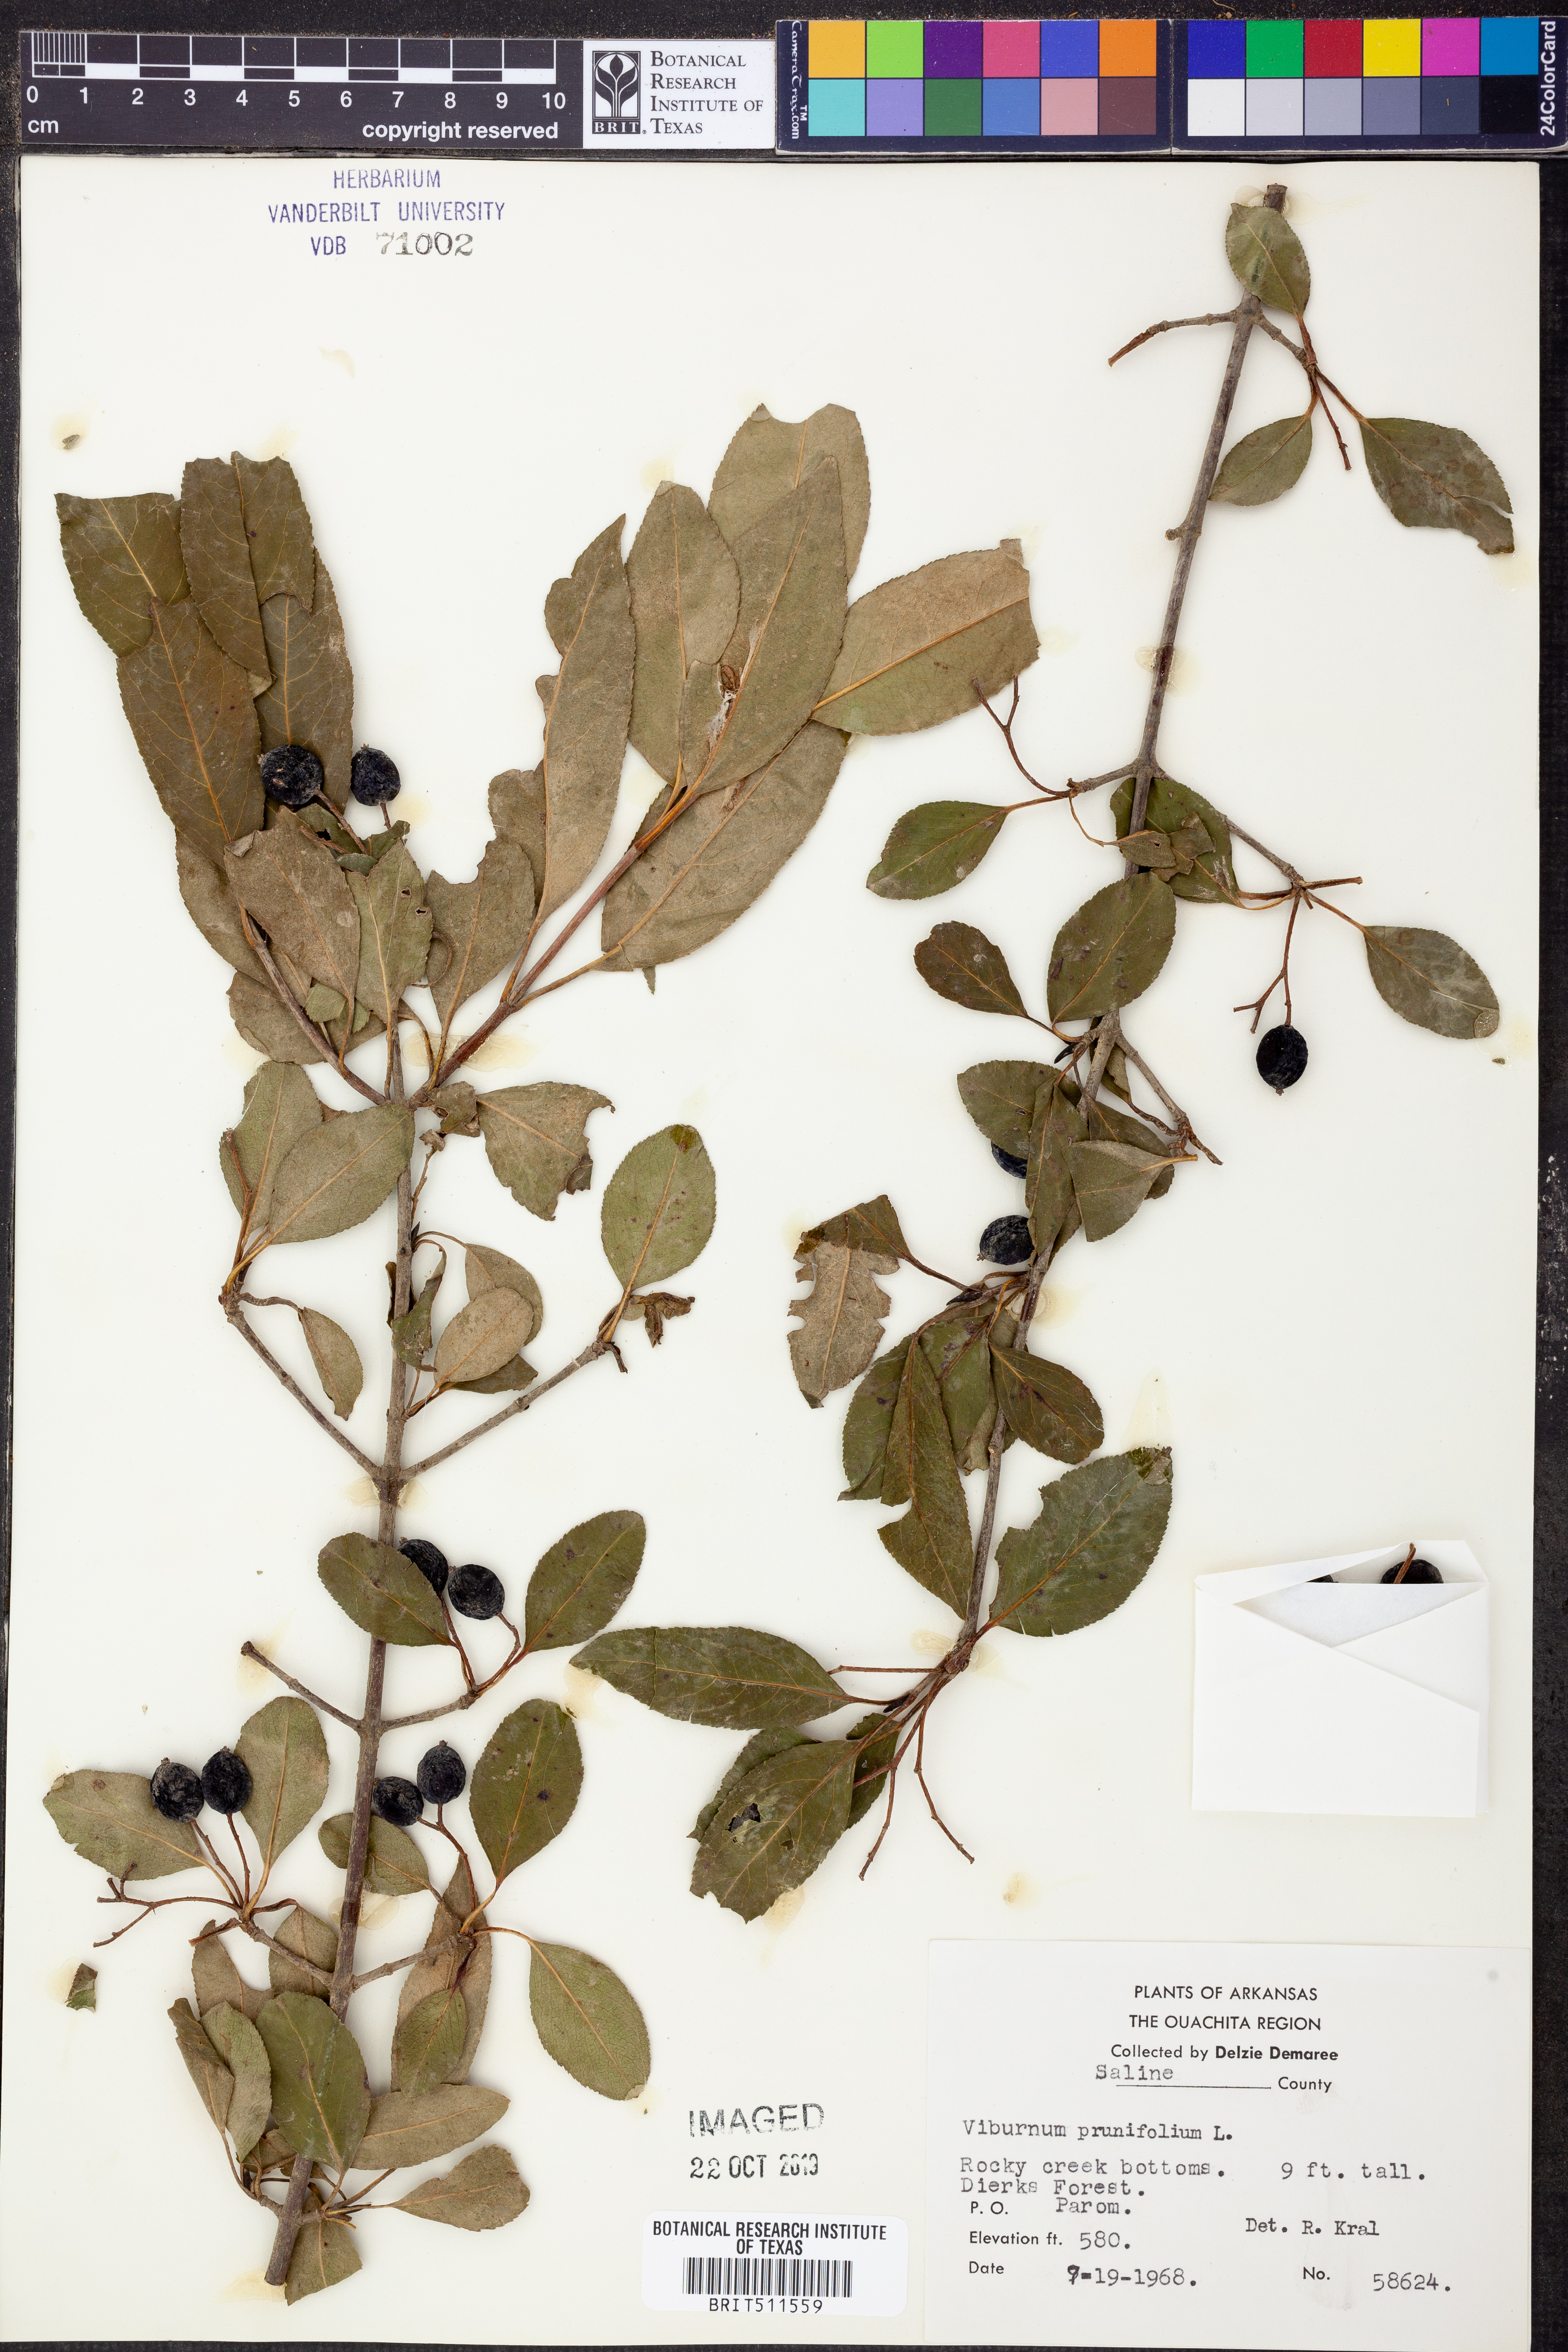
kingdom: Plantae
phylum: Tracheophyta
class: Magnoliopsida
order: Dipsacales
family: Viburnaceae
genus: Viburnum
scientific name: Viburnum prunifolium
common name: Black haw
